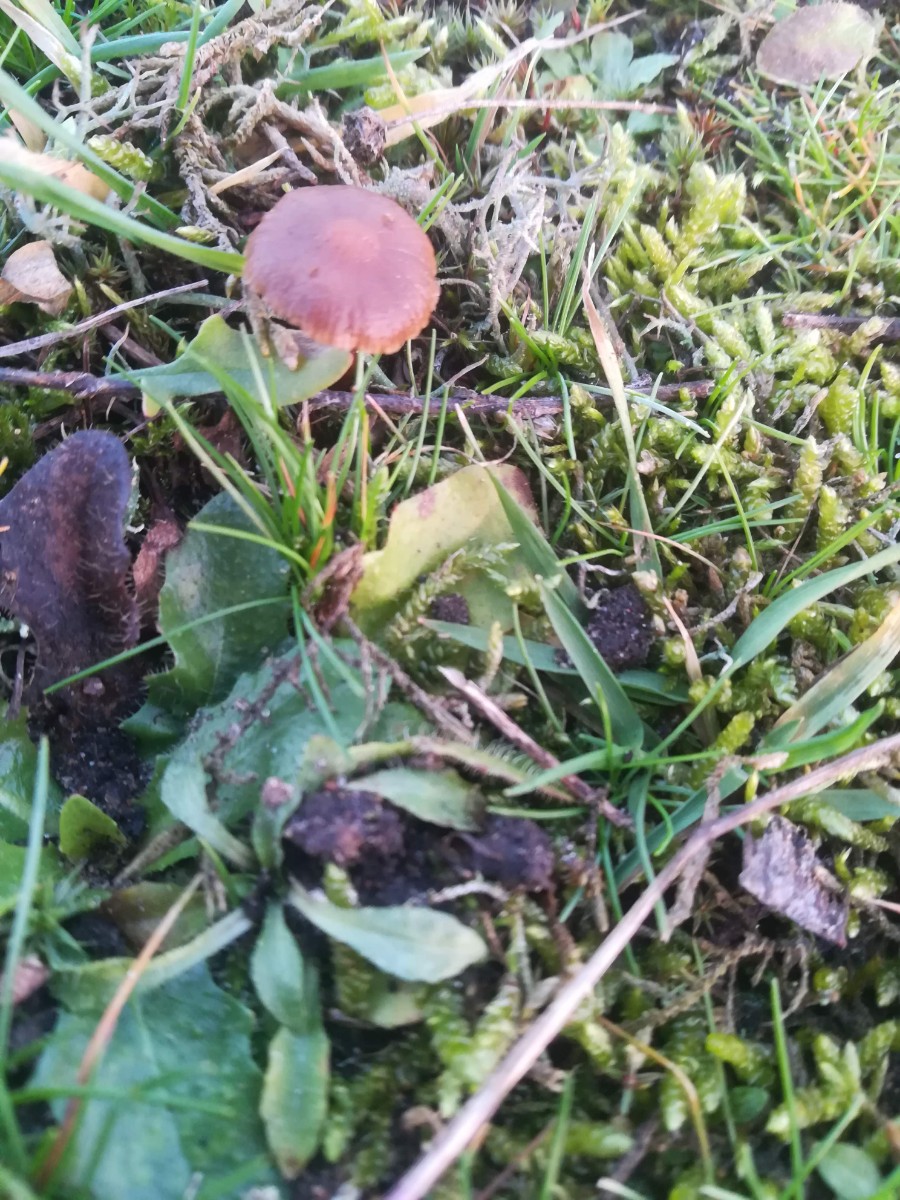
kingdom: Fungi
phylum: Basidiomycota
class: Agaricomycetes
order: Agaricales
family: Strophariaceae
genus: Deconica
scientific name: Deconica montana
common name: rødbrun stråhat
